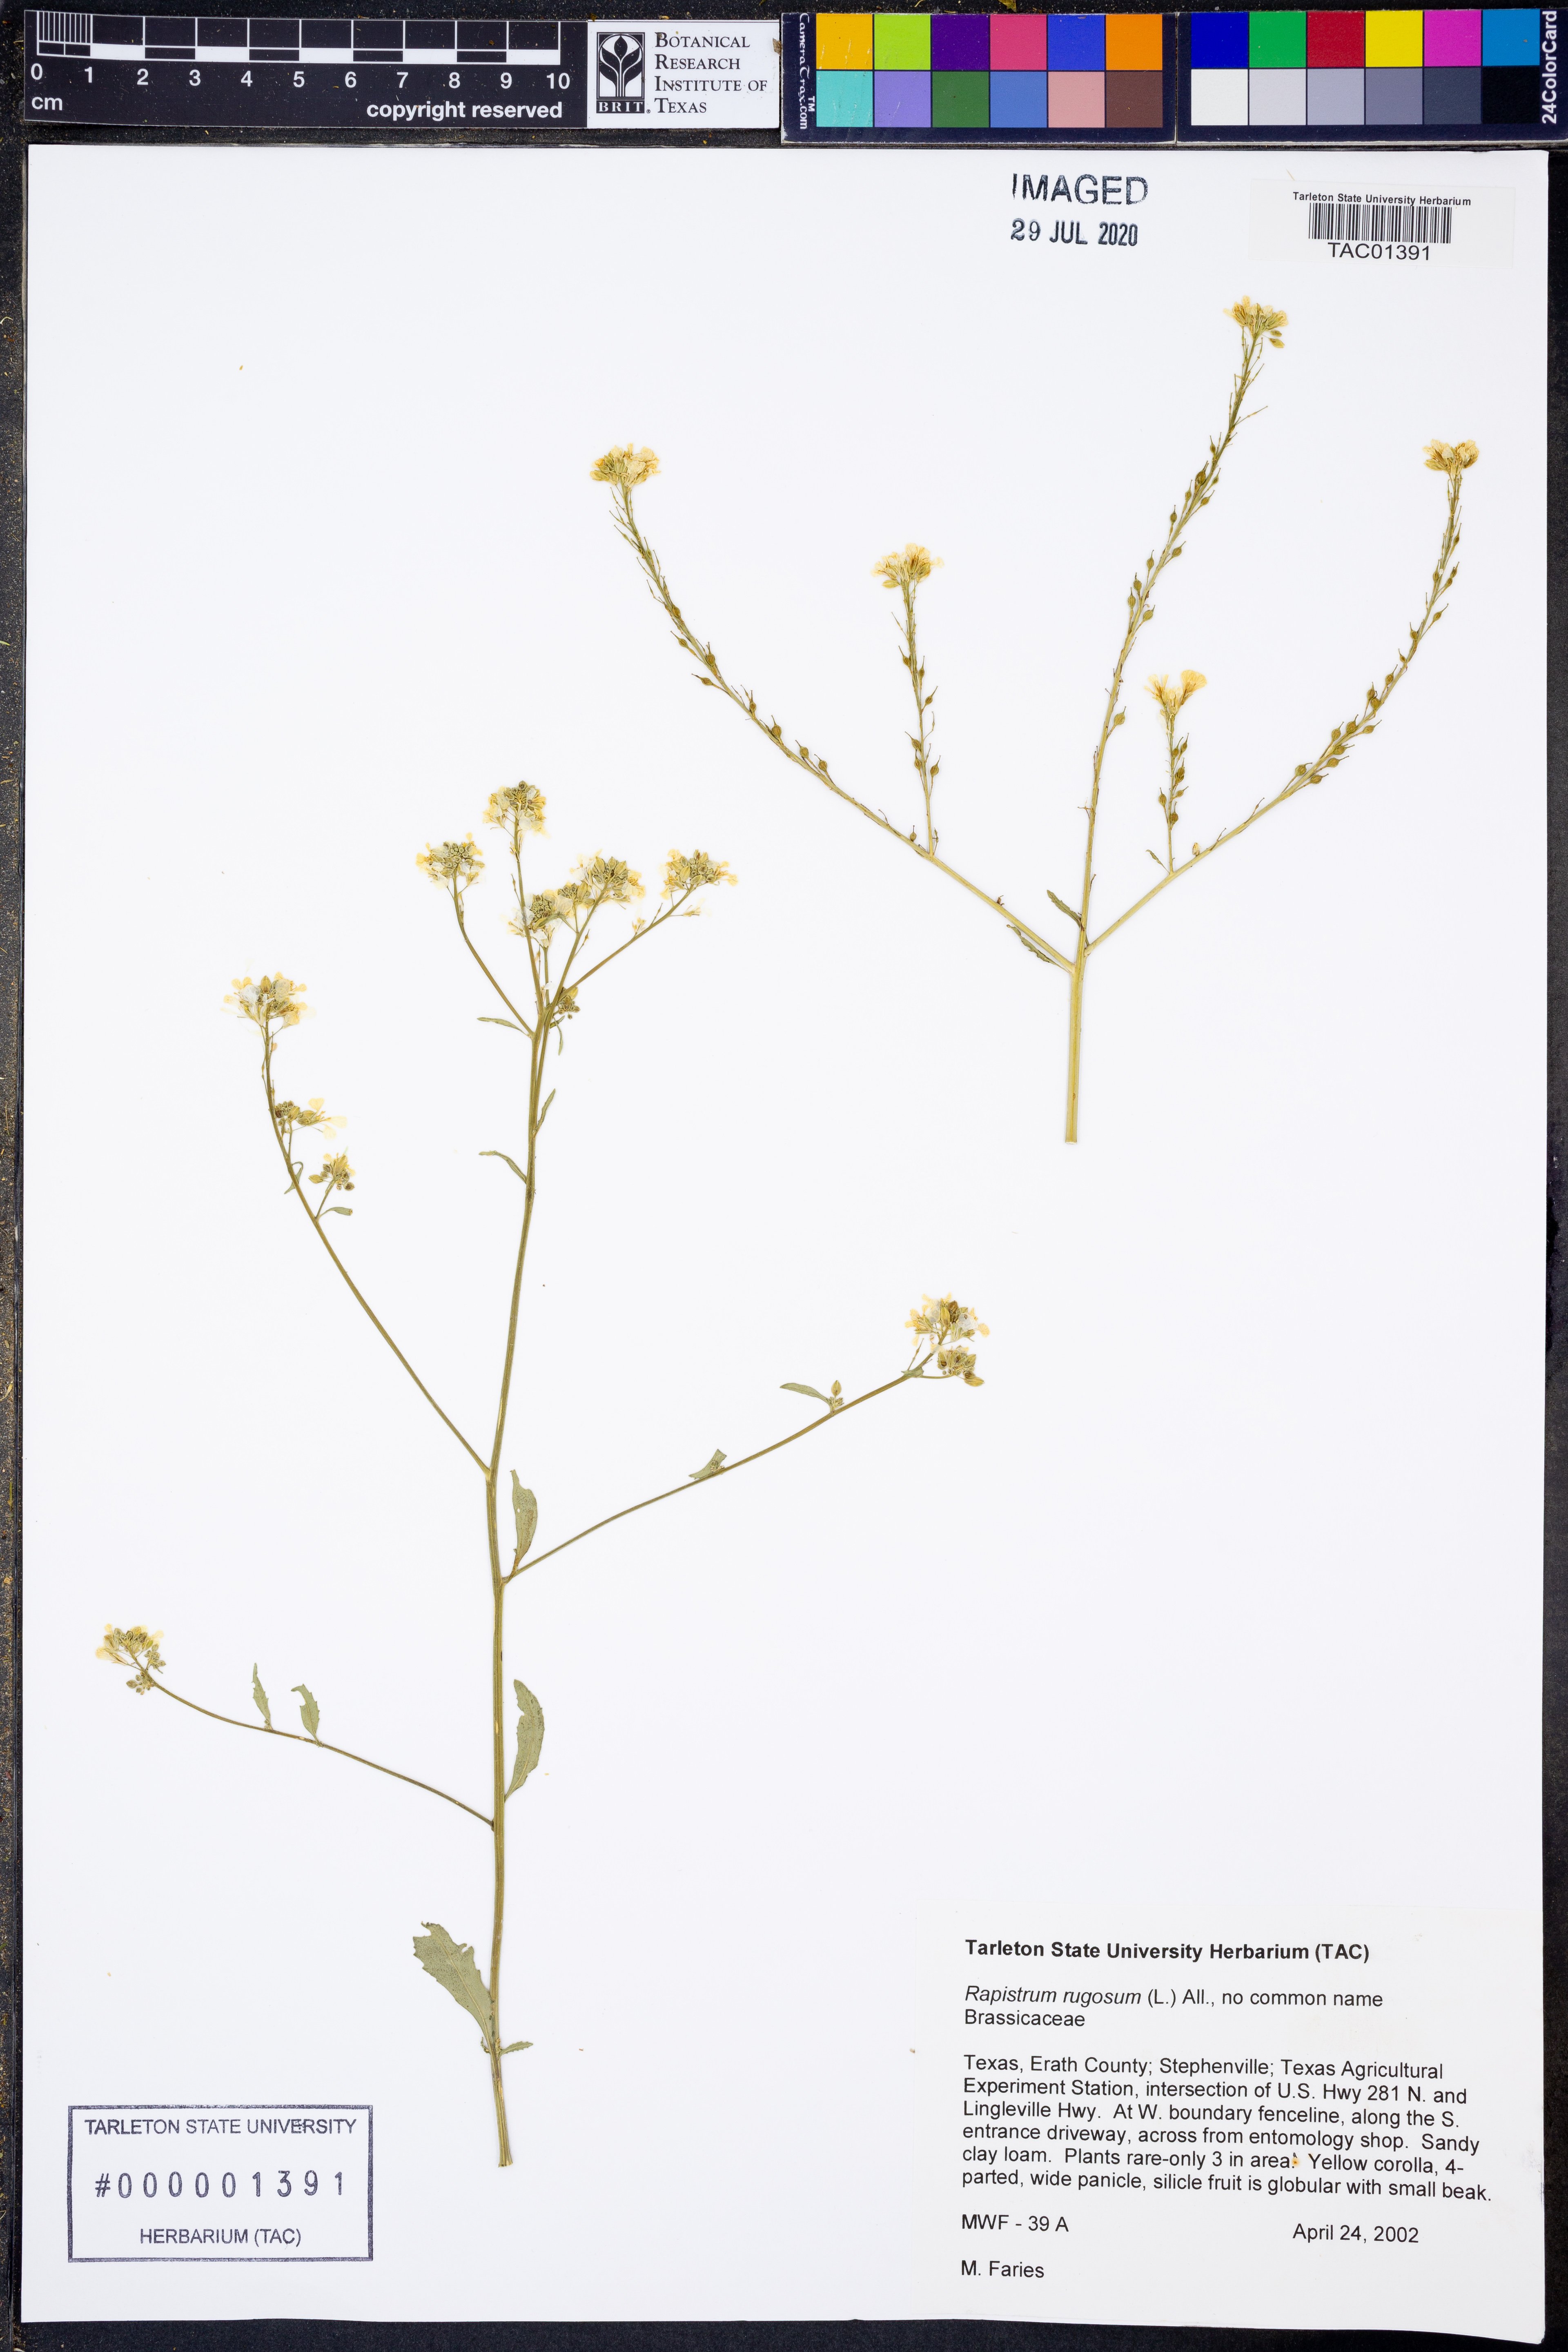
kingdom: Plantae
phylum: Tracheophyta
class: Magnoliopsida
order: Brassicales
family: Brassicaceae
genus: Rapistrum
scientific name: Rapistrum rugosum
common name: Annual bastardcabbage
